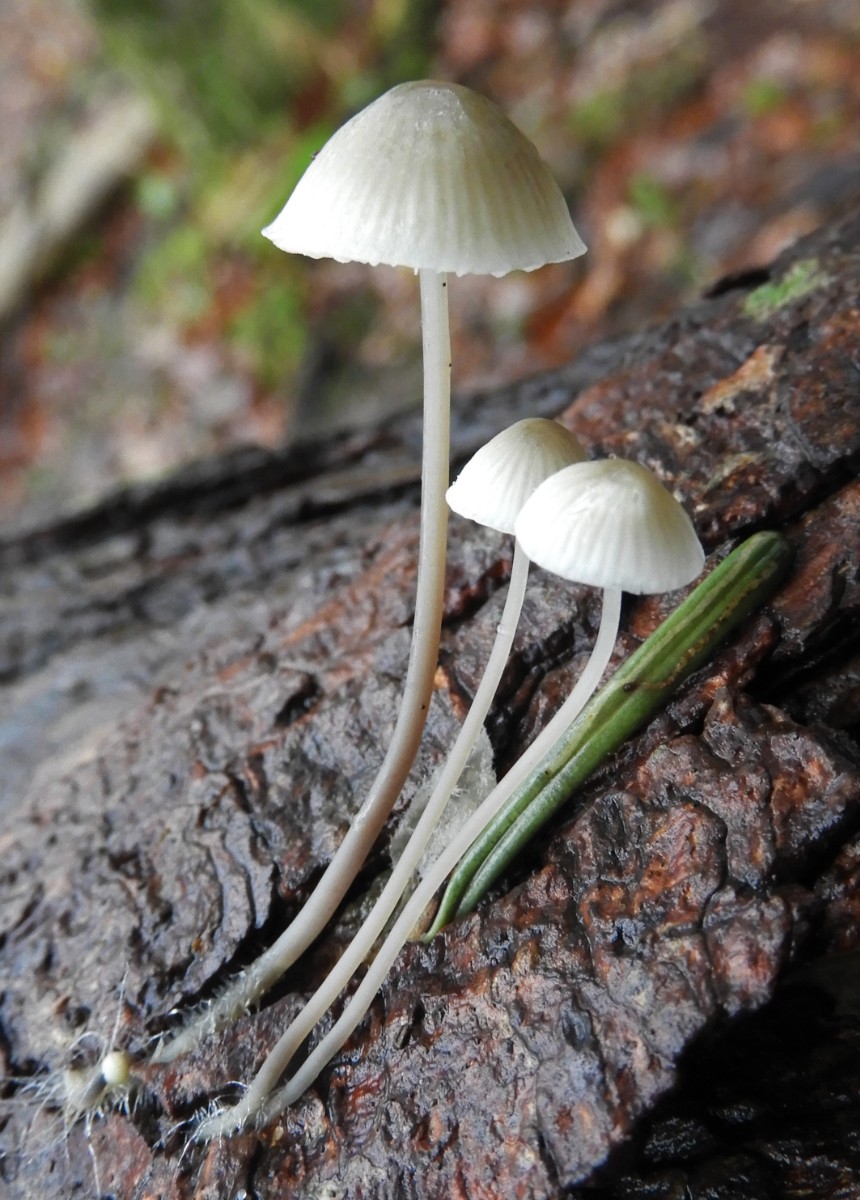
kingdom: Fungi
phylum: Basidiomycota
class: Agaricomycetes
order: Agaricales
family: Mycenaceae
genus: Mycena
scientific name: Mycena arcangeliana
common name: oliven-huesvamp
